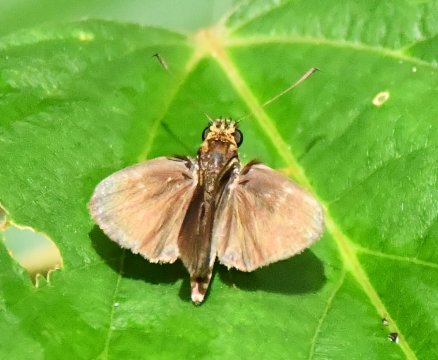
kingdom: Animalia
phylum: Arthropoda
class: Insecta
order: Lepidoptera
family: Hesperiidae
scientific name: Hesperiidae
